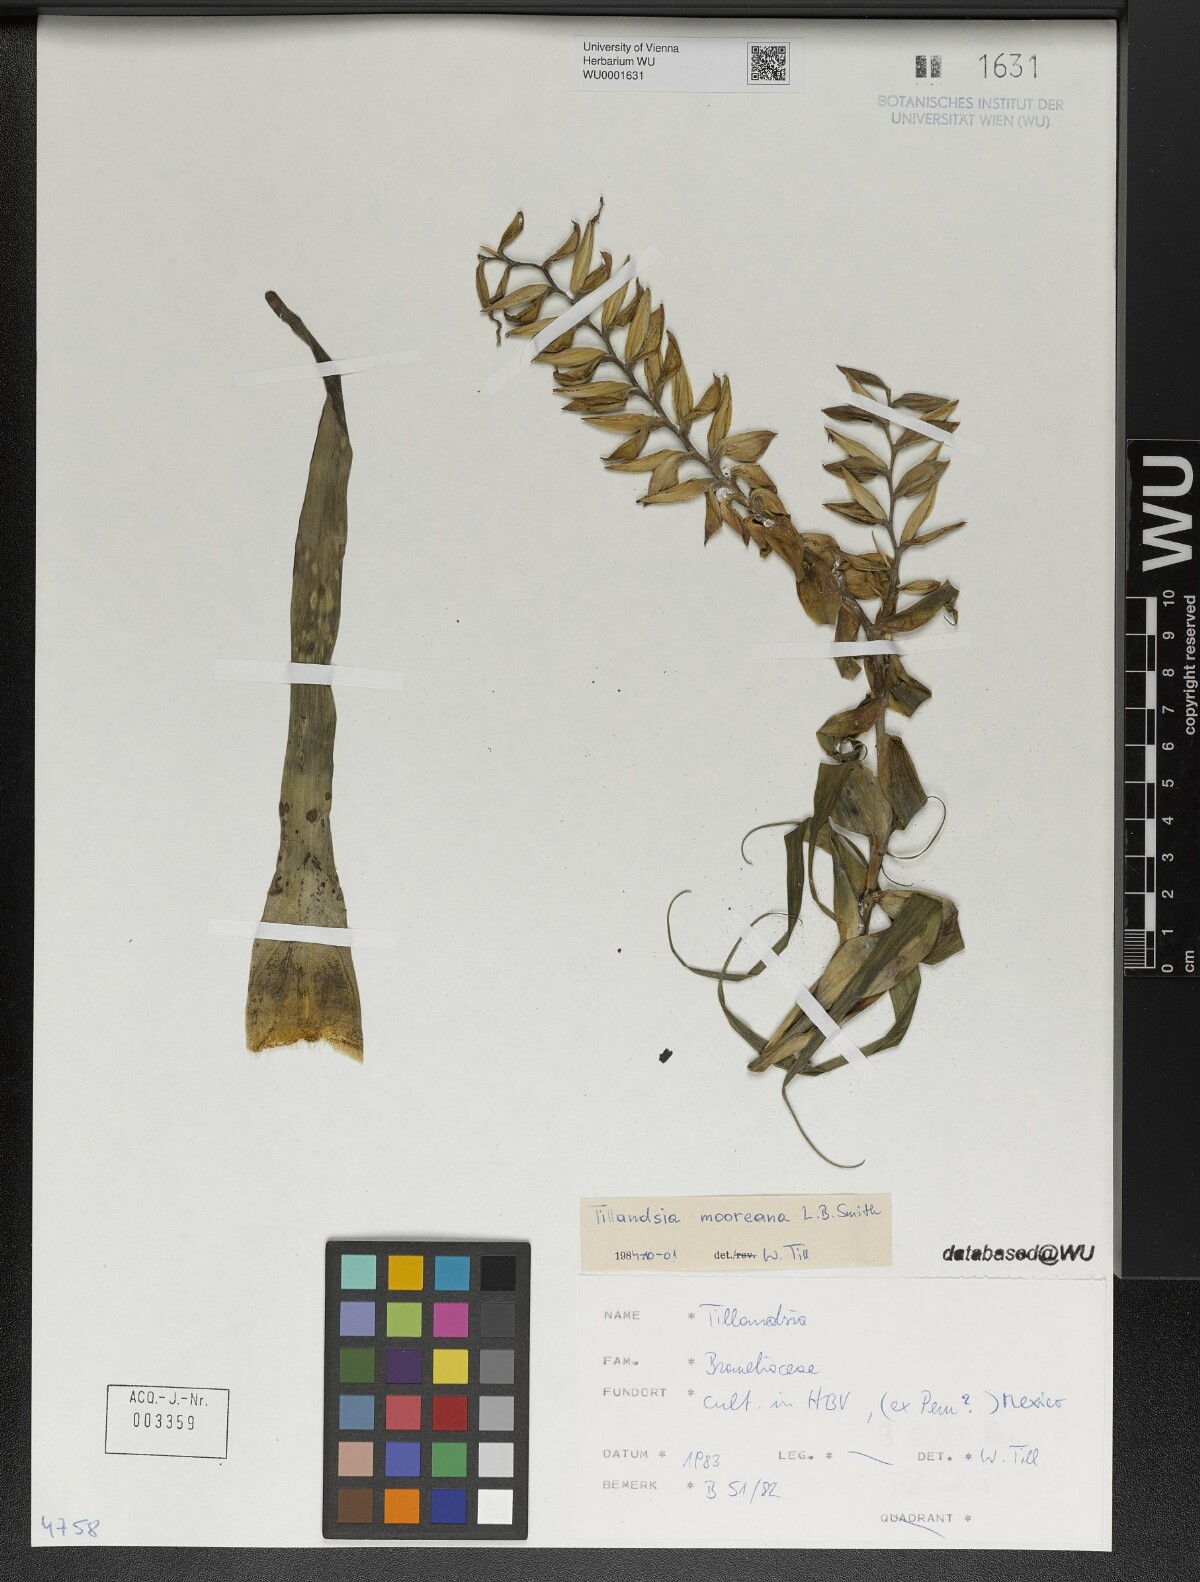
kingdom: Plantae
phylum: Tracheophyta
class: Liliopsida
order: Poales
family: Bromeliaceae
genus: Tillandsia
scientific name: Tillandsia mooreana
